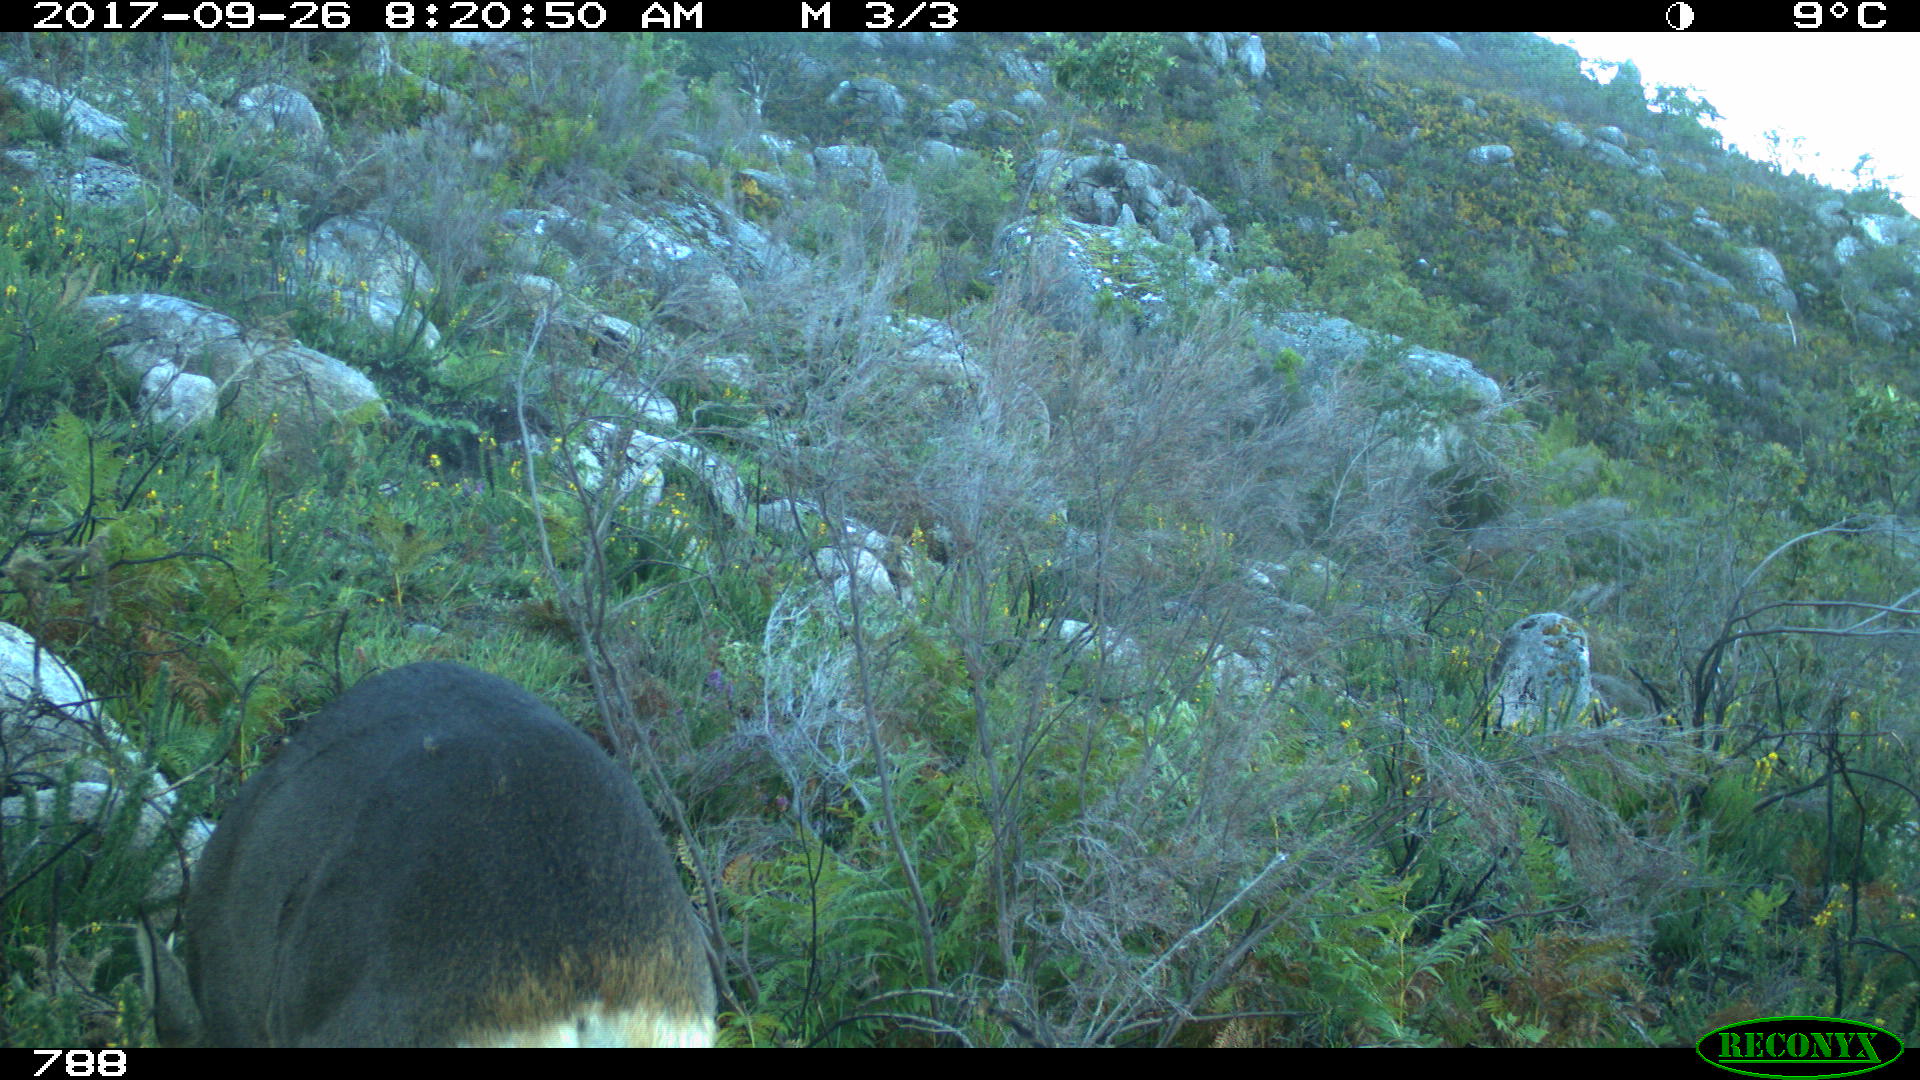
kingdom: Animalia
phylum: Chordata
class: Mammalia
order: Artiodactyla
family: Cervidae
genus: Capreolus
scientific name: Capreolus capreolus
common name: Western roe deer
